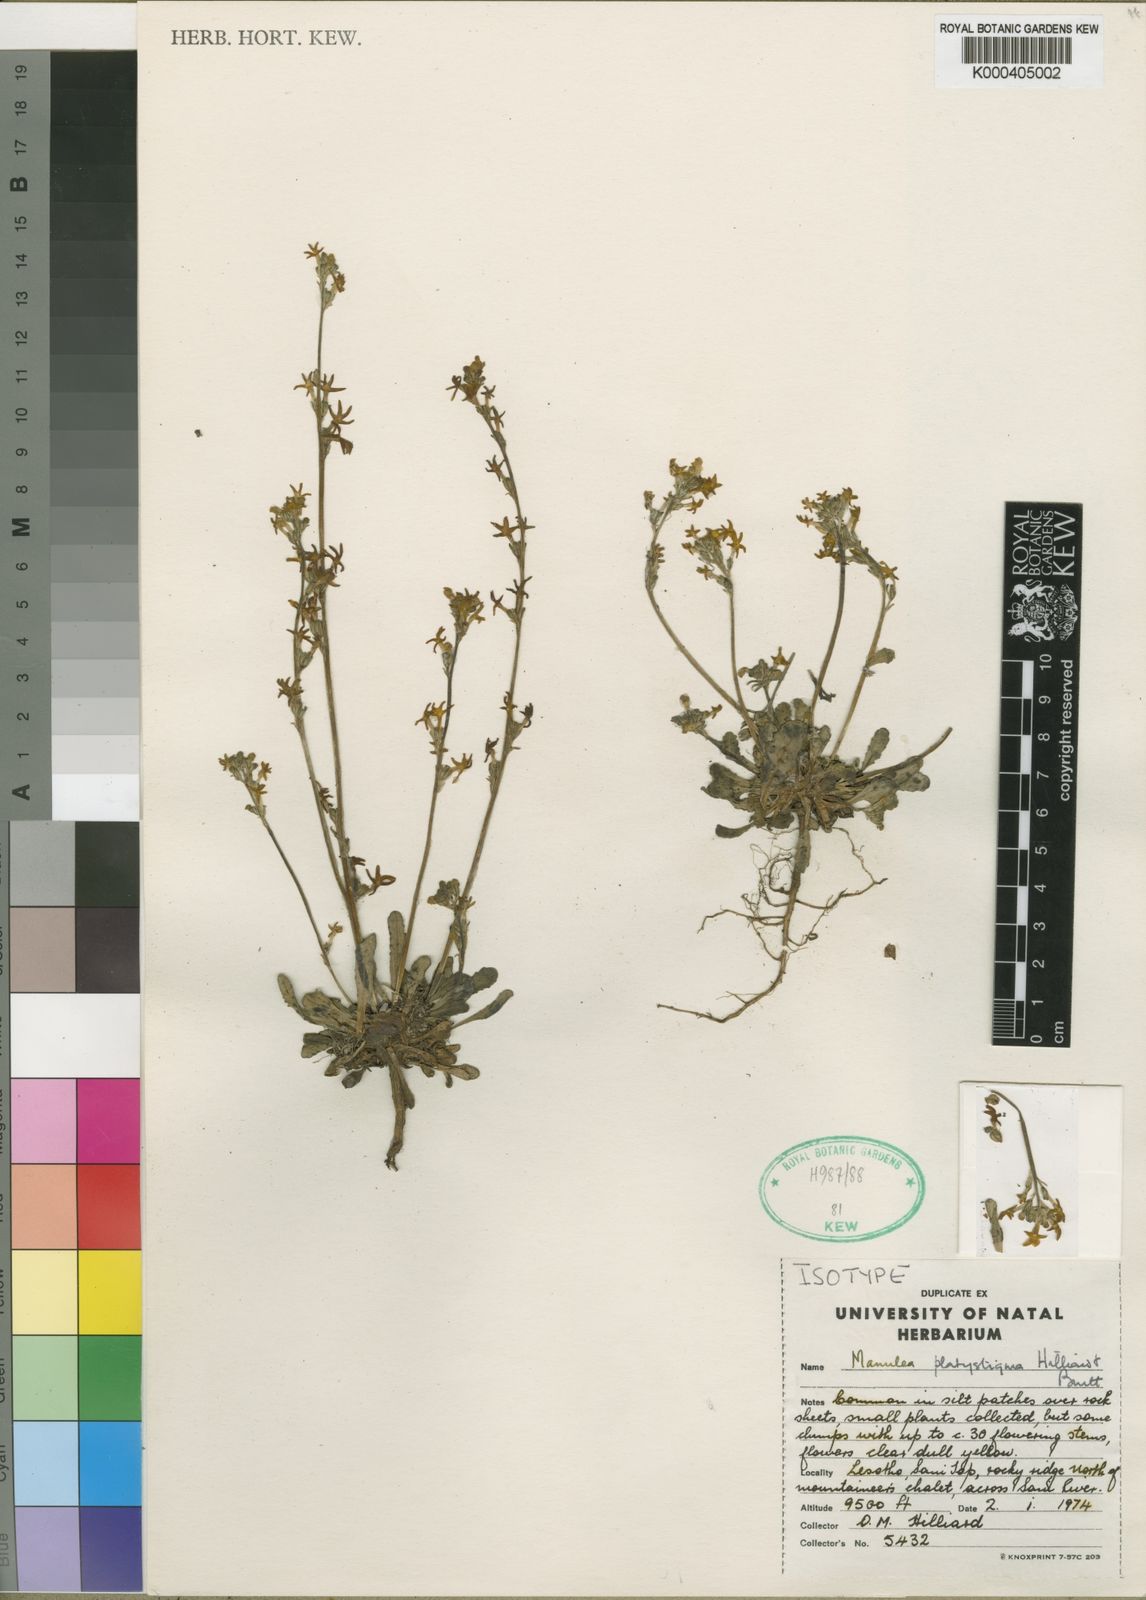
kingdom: Plantae
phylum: Tracheophyta
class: Magnoliopsida
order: Lamiales
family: Scrophulariaceae
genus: Manulea
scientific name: Manulea platystigma
